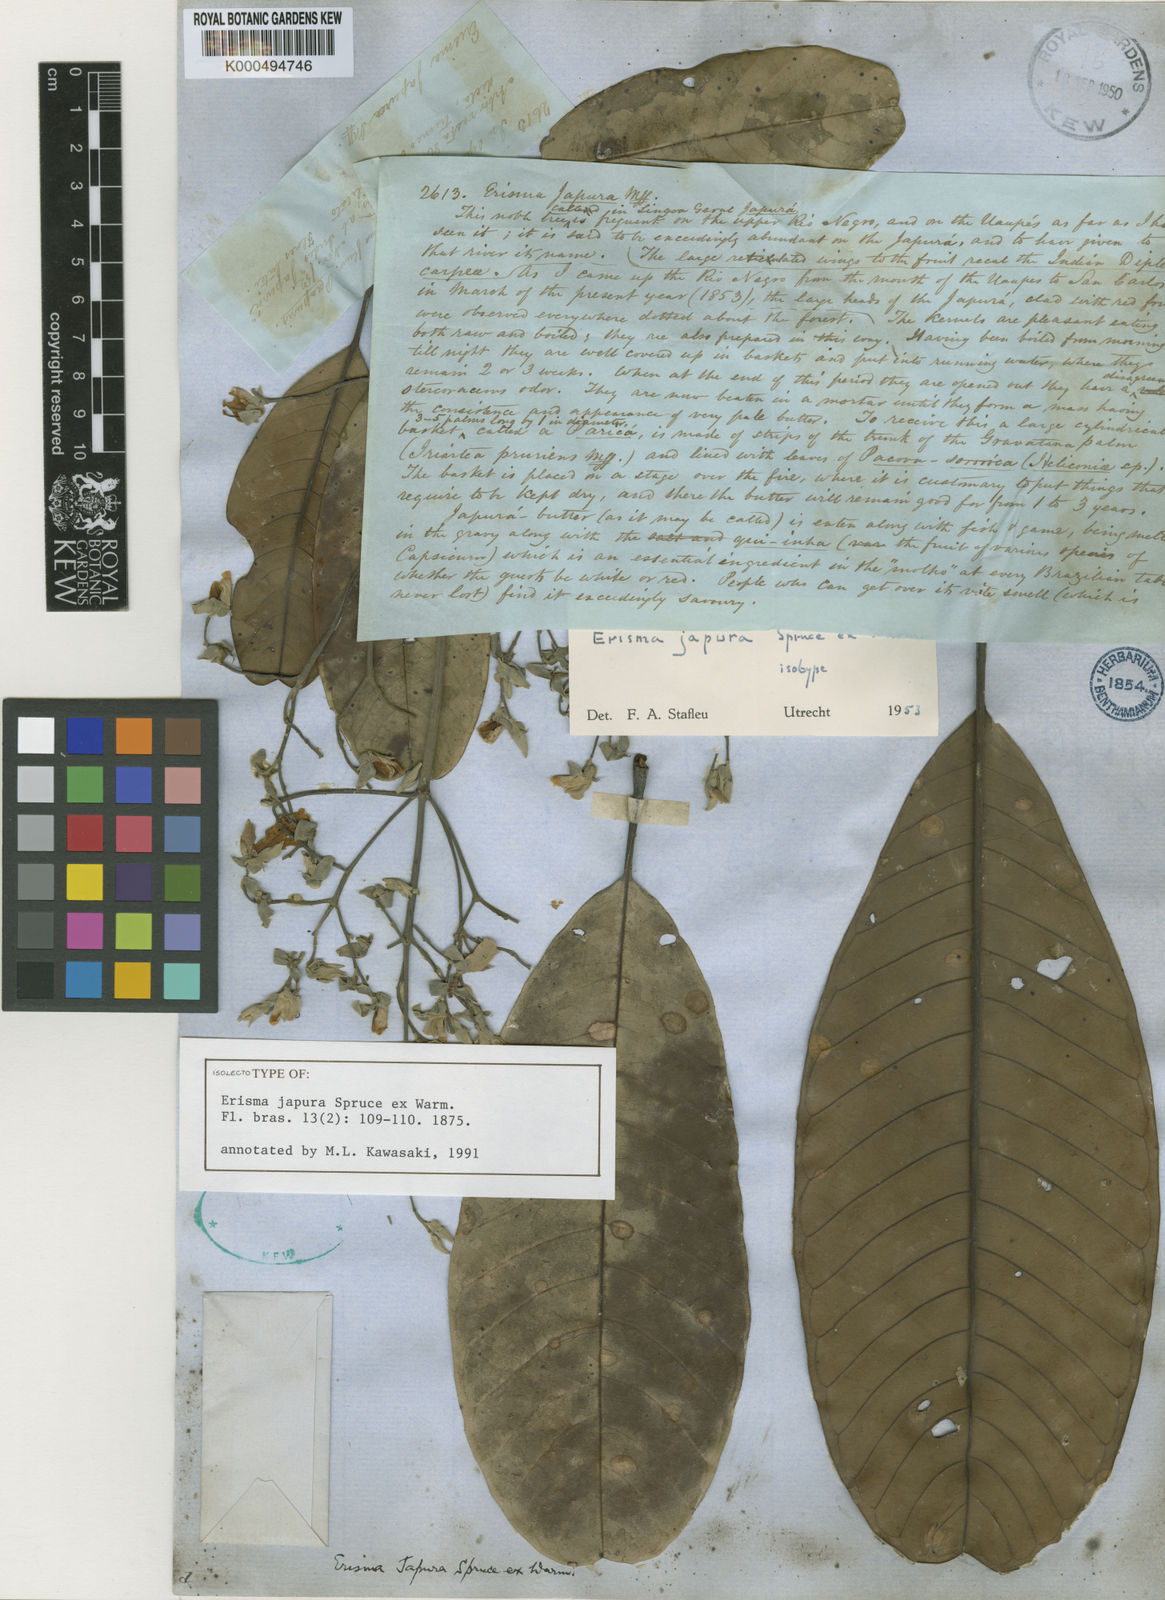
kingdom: Plantae
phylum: Tracheophyta
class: Magnoliopsida
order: Myrtales
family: Vochysiaceae
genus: Erisma
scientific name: Erisma japura
